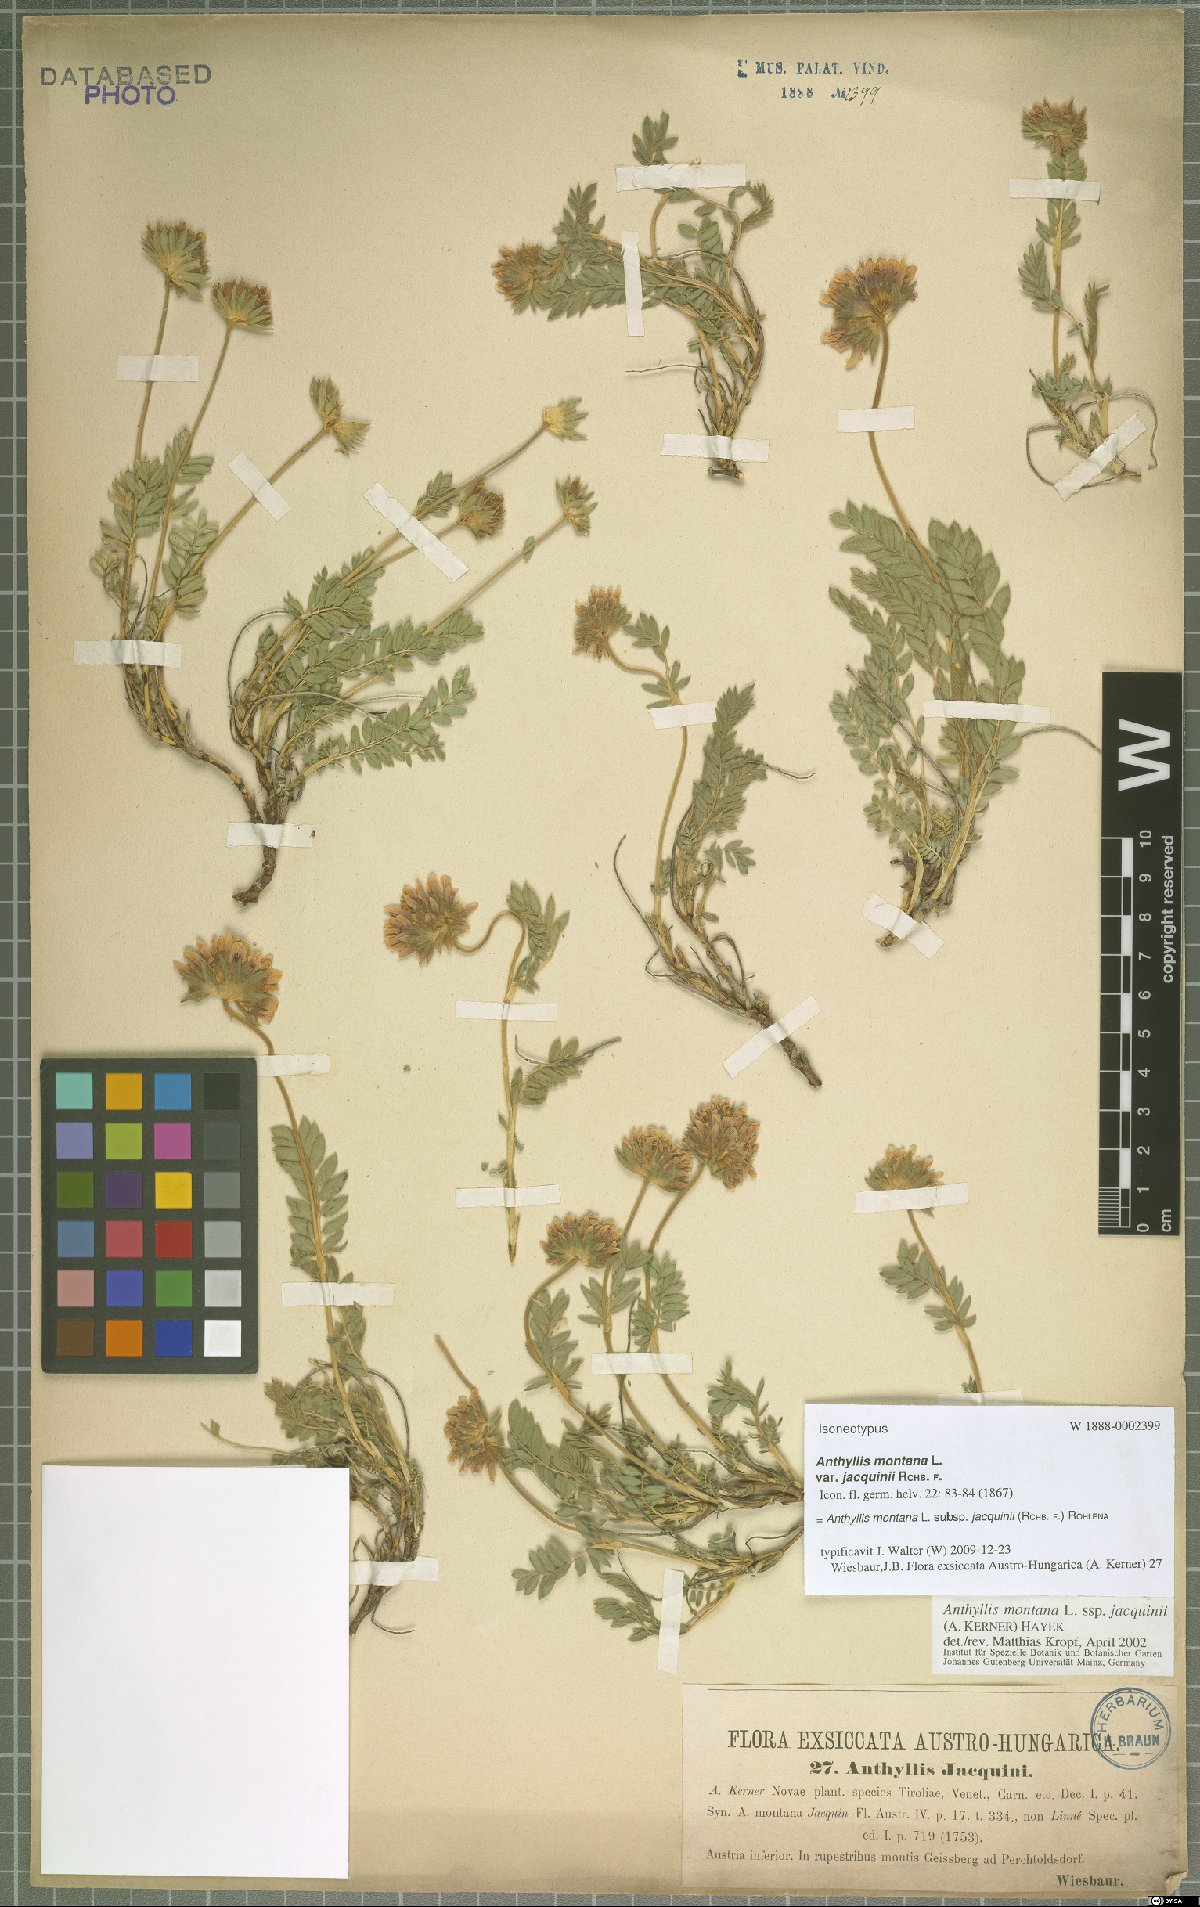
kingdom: Plantae
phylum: Tracheophyta
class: Magnoliopsida
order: Fabales
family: Fabaceae
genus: Anthyllis
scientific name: Anthyllis montana
